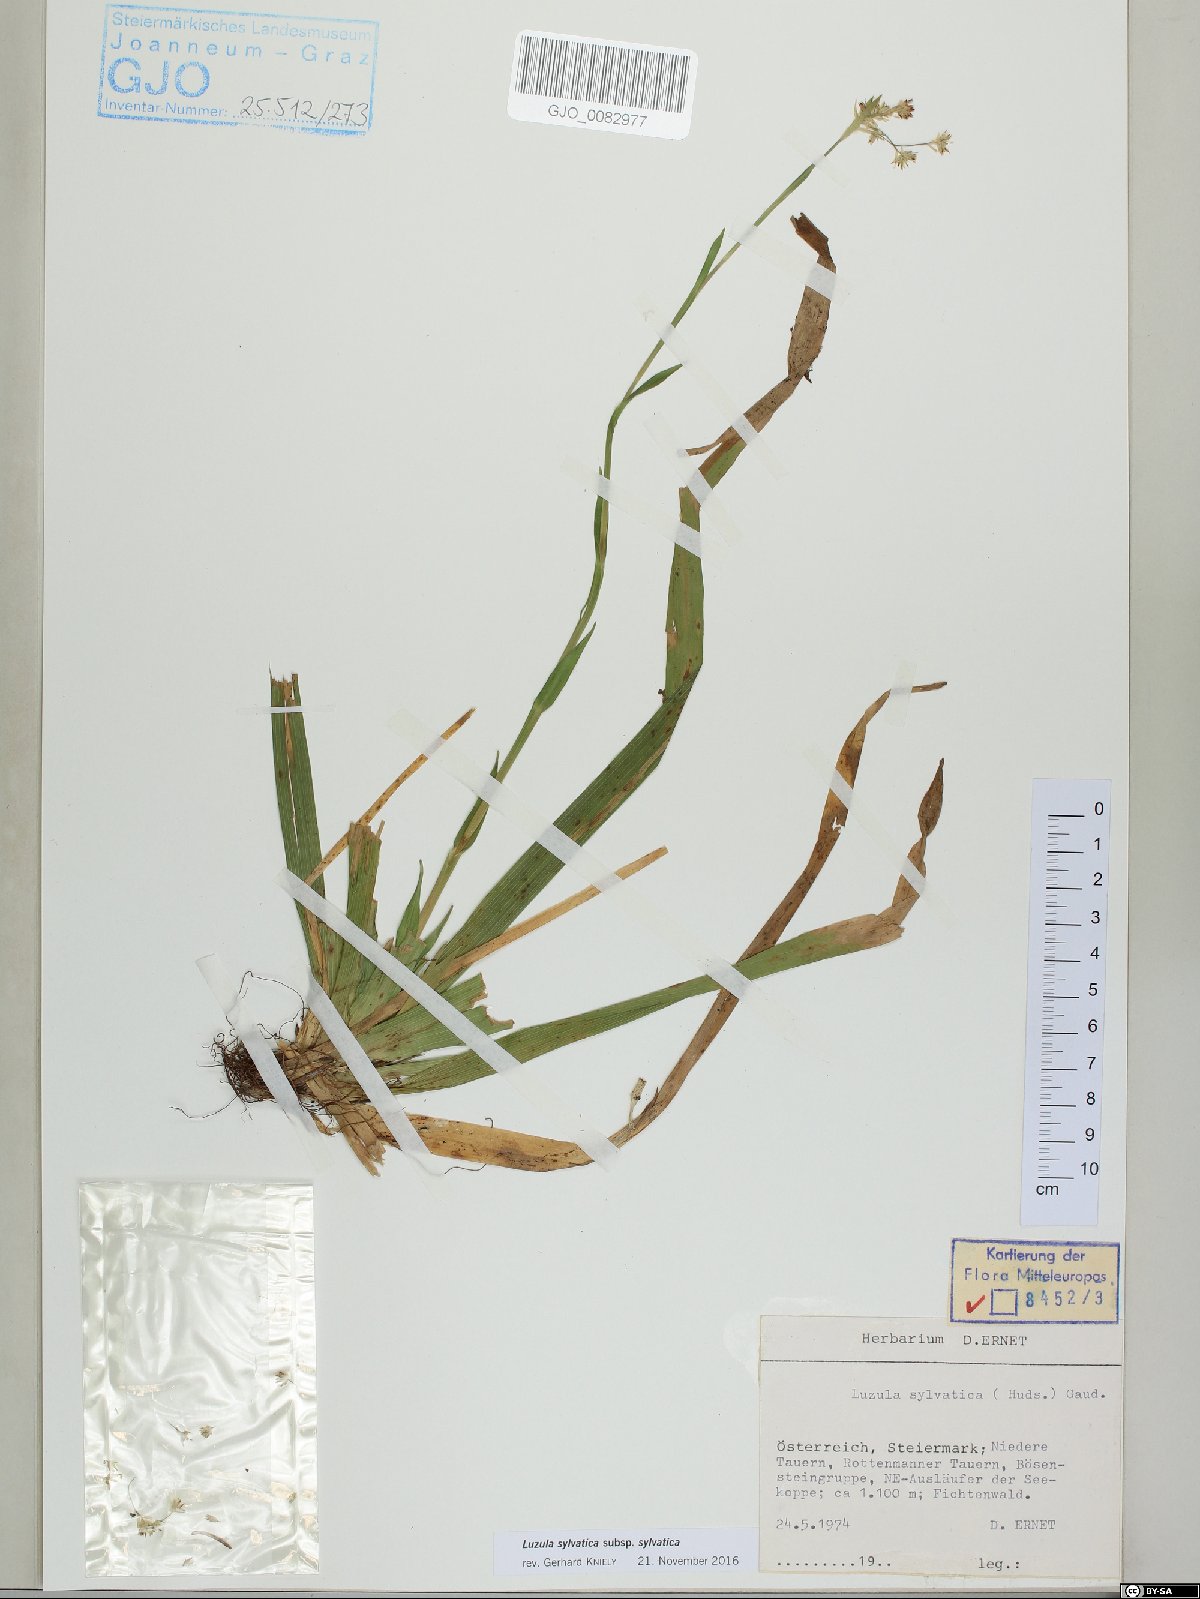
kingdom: Plantae
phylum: Tracheophyta
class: Liliopsida
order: Poales
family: Juncaceae
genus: Luzula
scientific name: Luzula sylvatica
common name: Great wood-rush
